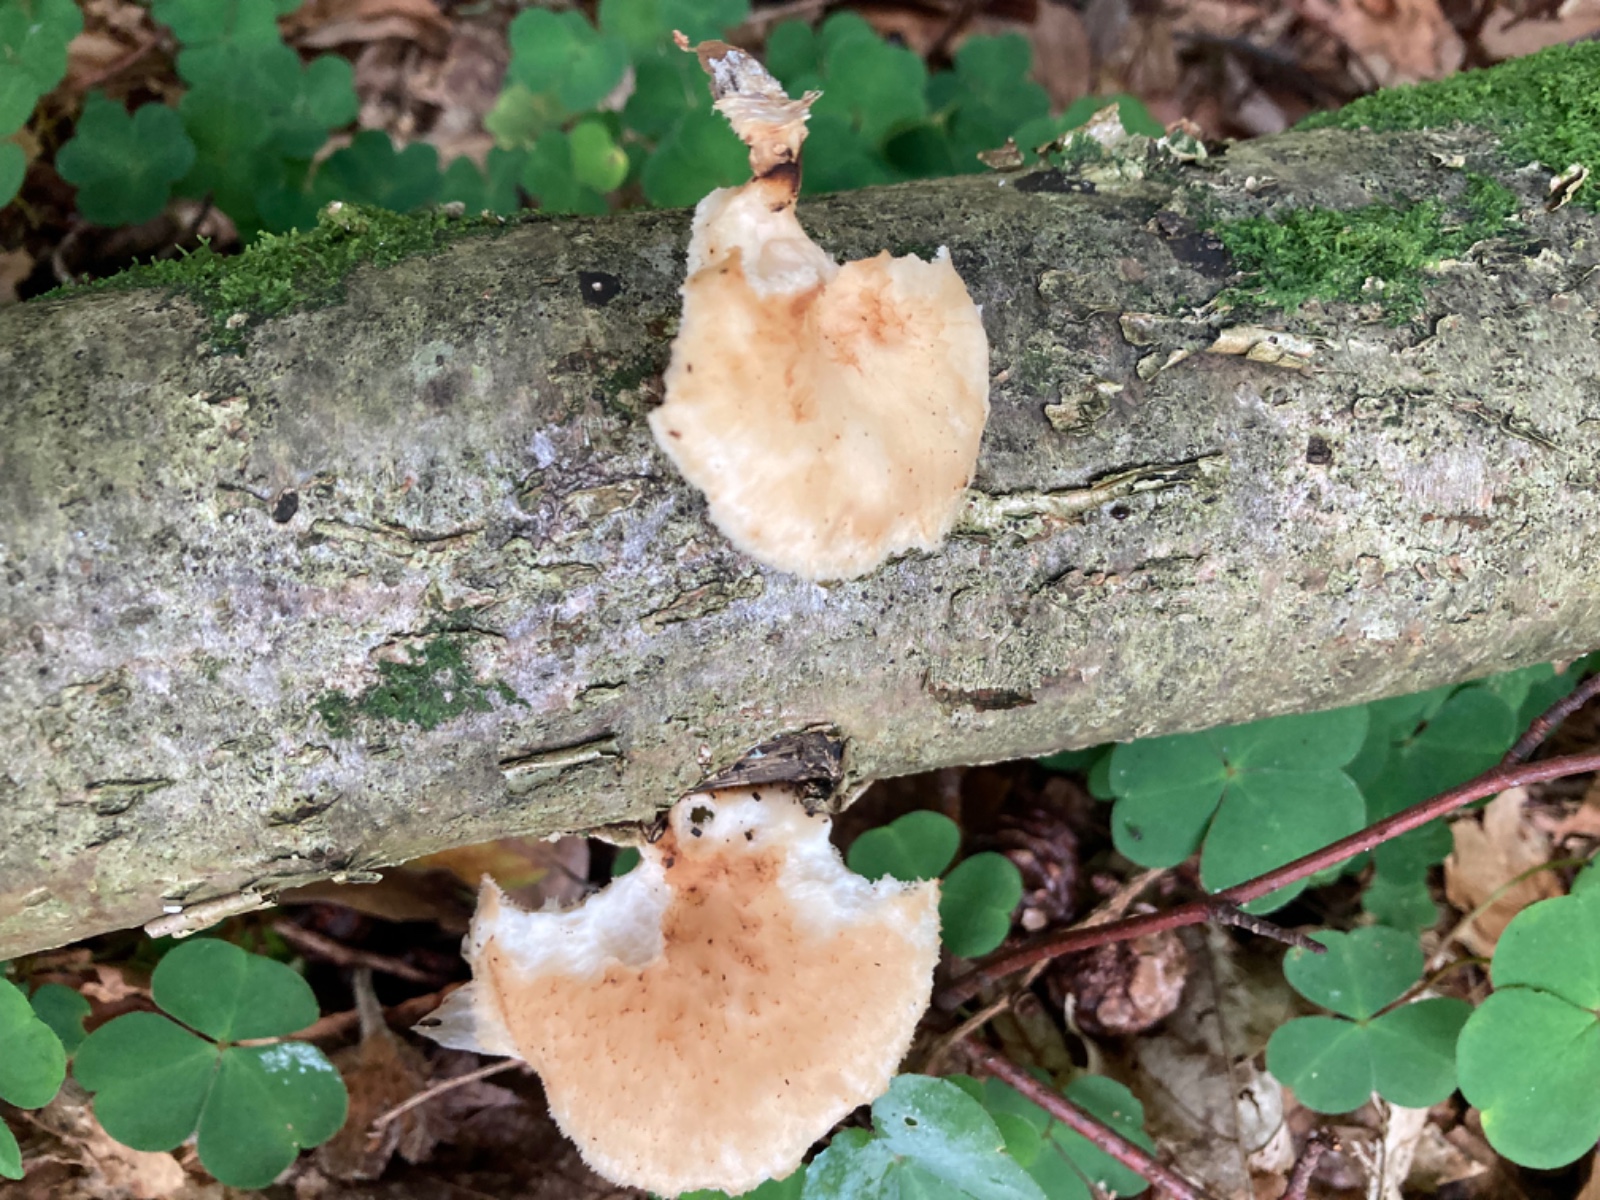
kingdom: Fungi
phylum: Basidiomycota
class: Agaricomycetes
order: Polyporales
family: Polyporaceae
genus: Polyporus
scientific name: Polyporus tuberaster
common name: knoldet stilkporesvamp
